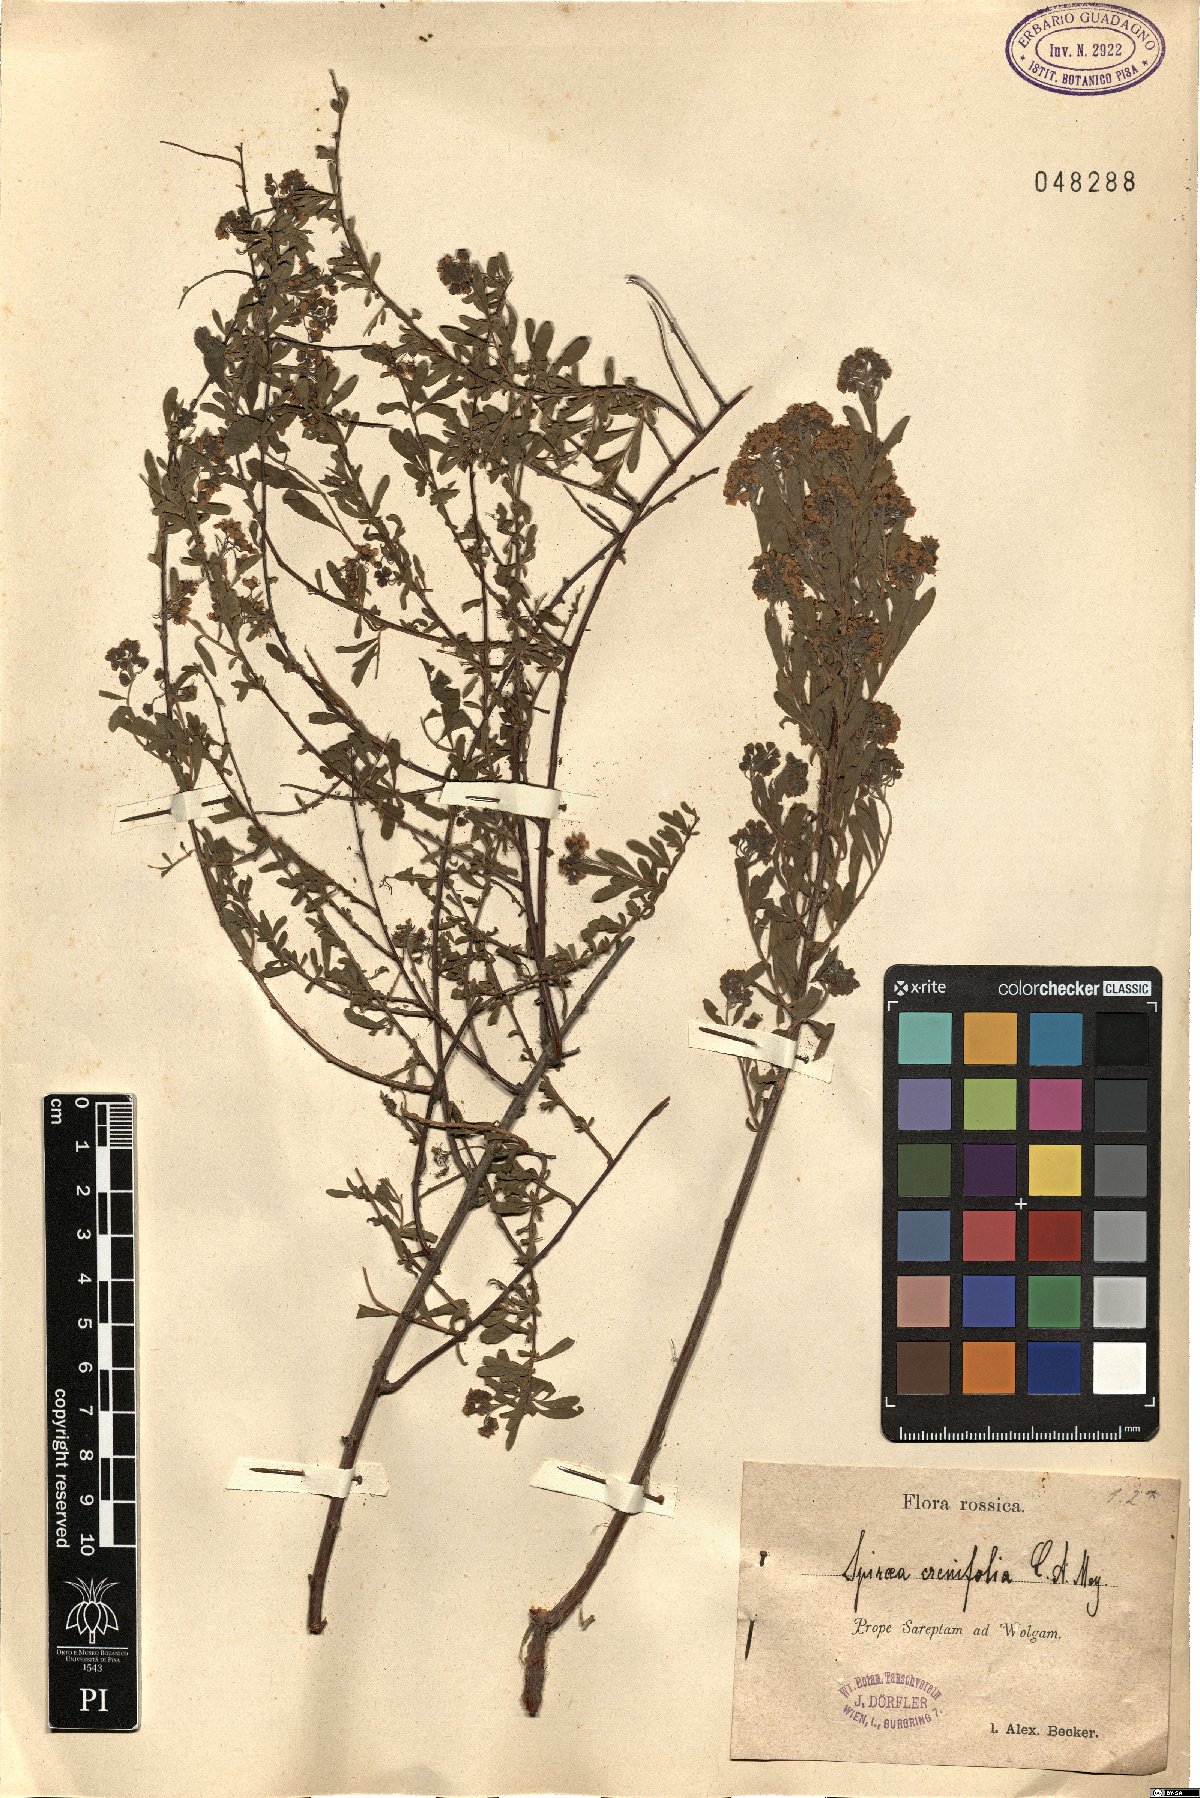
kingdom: Plantae
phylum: Tracheophyta
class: Magnoliopsida
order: Rosales
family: Rosaceae
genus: Spiraea
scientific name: Spiraea crenata
